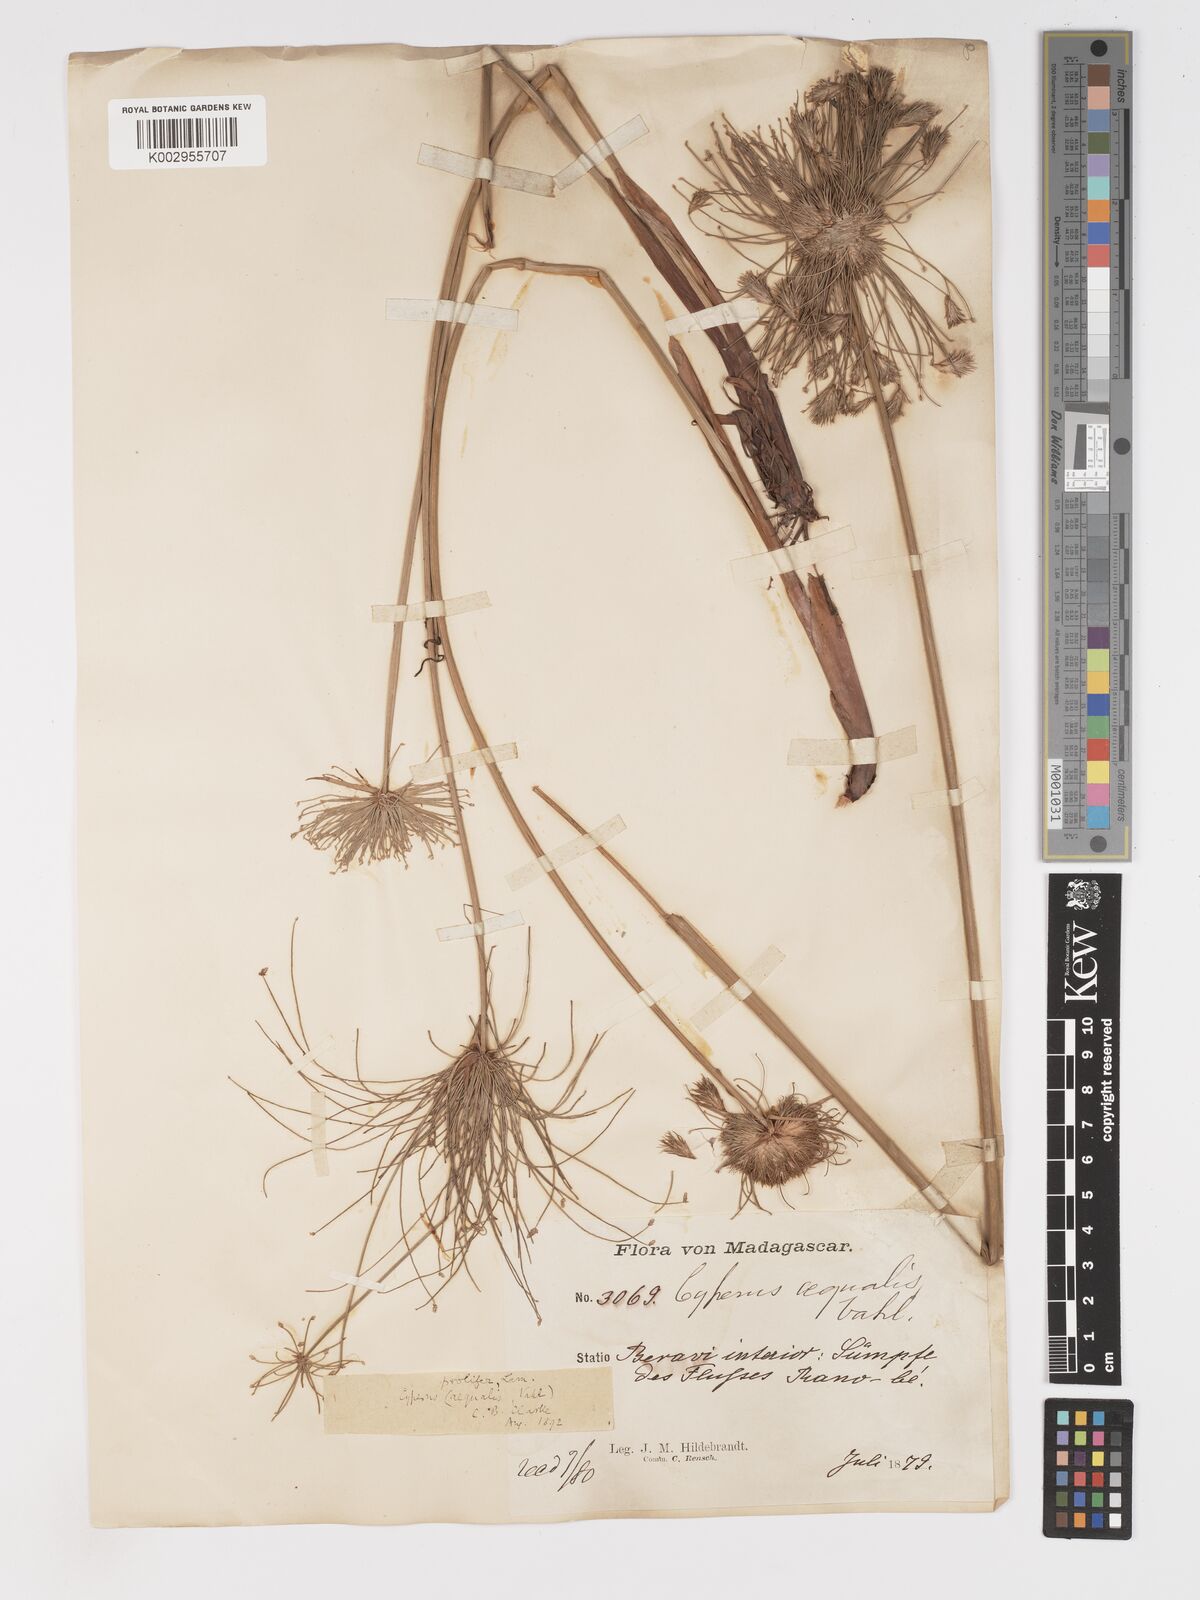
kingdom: Plantae
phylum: Tracheophyta
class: Liliopsida
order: Poales
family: Cyperaceae
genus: Cyperus
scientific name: Cyperus prolifer
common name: Miniature flatsedge
